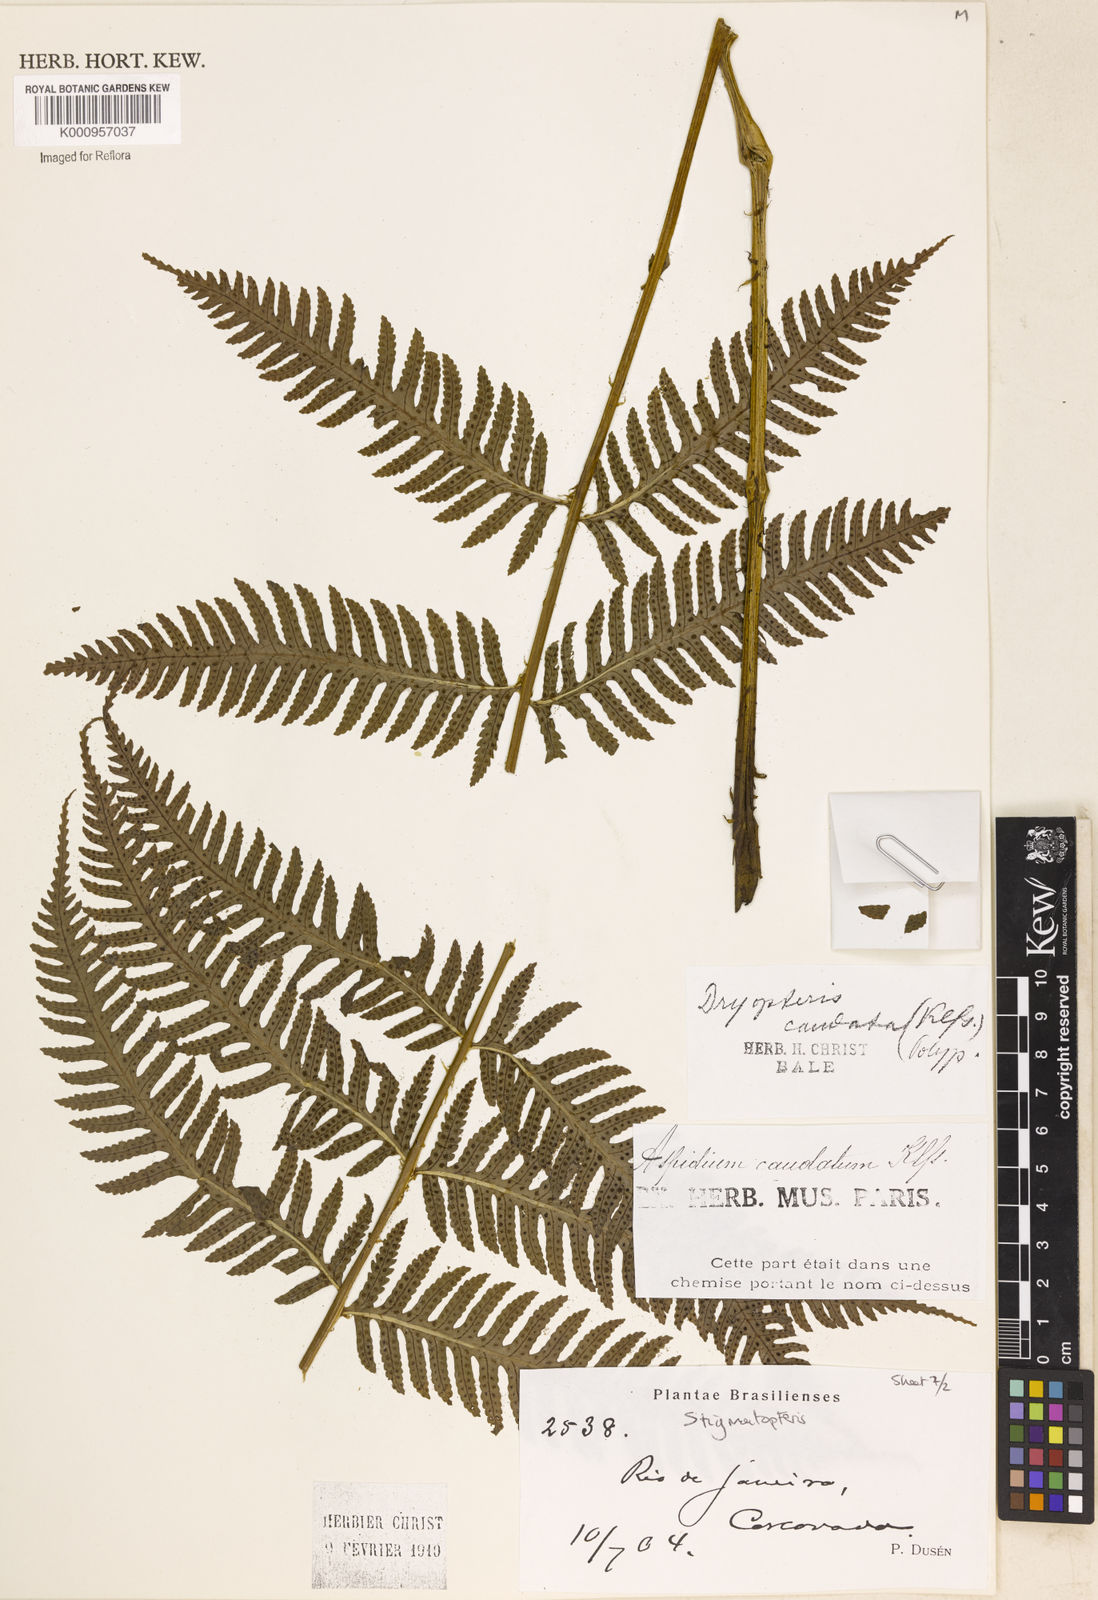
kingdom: Plantae
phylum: Tracheophyta
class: Polypodiopsida
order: Polypodiales
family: Dryopteridaceae
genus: Stigmatopteris
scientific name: Stigmatopteris caudata
